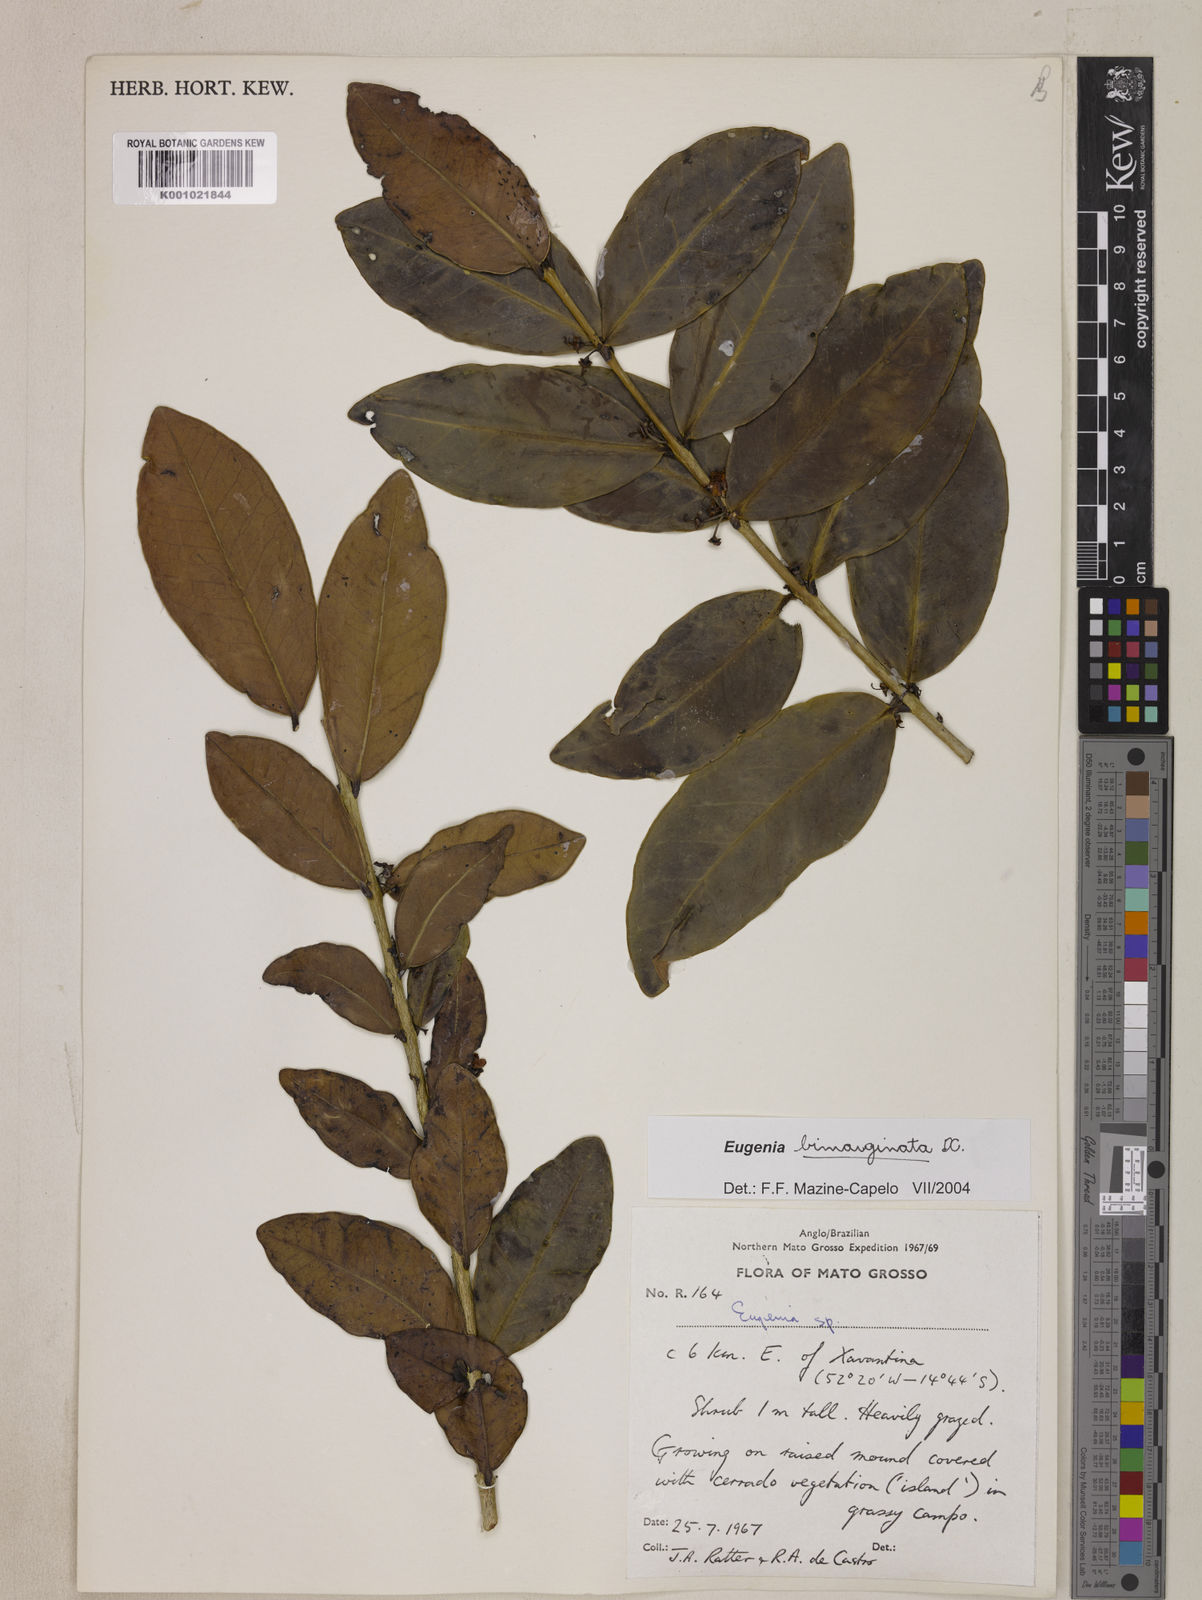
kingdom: Plantae
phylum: Tracheophyta
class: Magnoliopsida
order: Myrtales
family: Myrtaceae
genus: Eugenia
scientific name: Eugenia bimarginata
